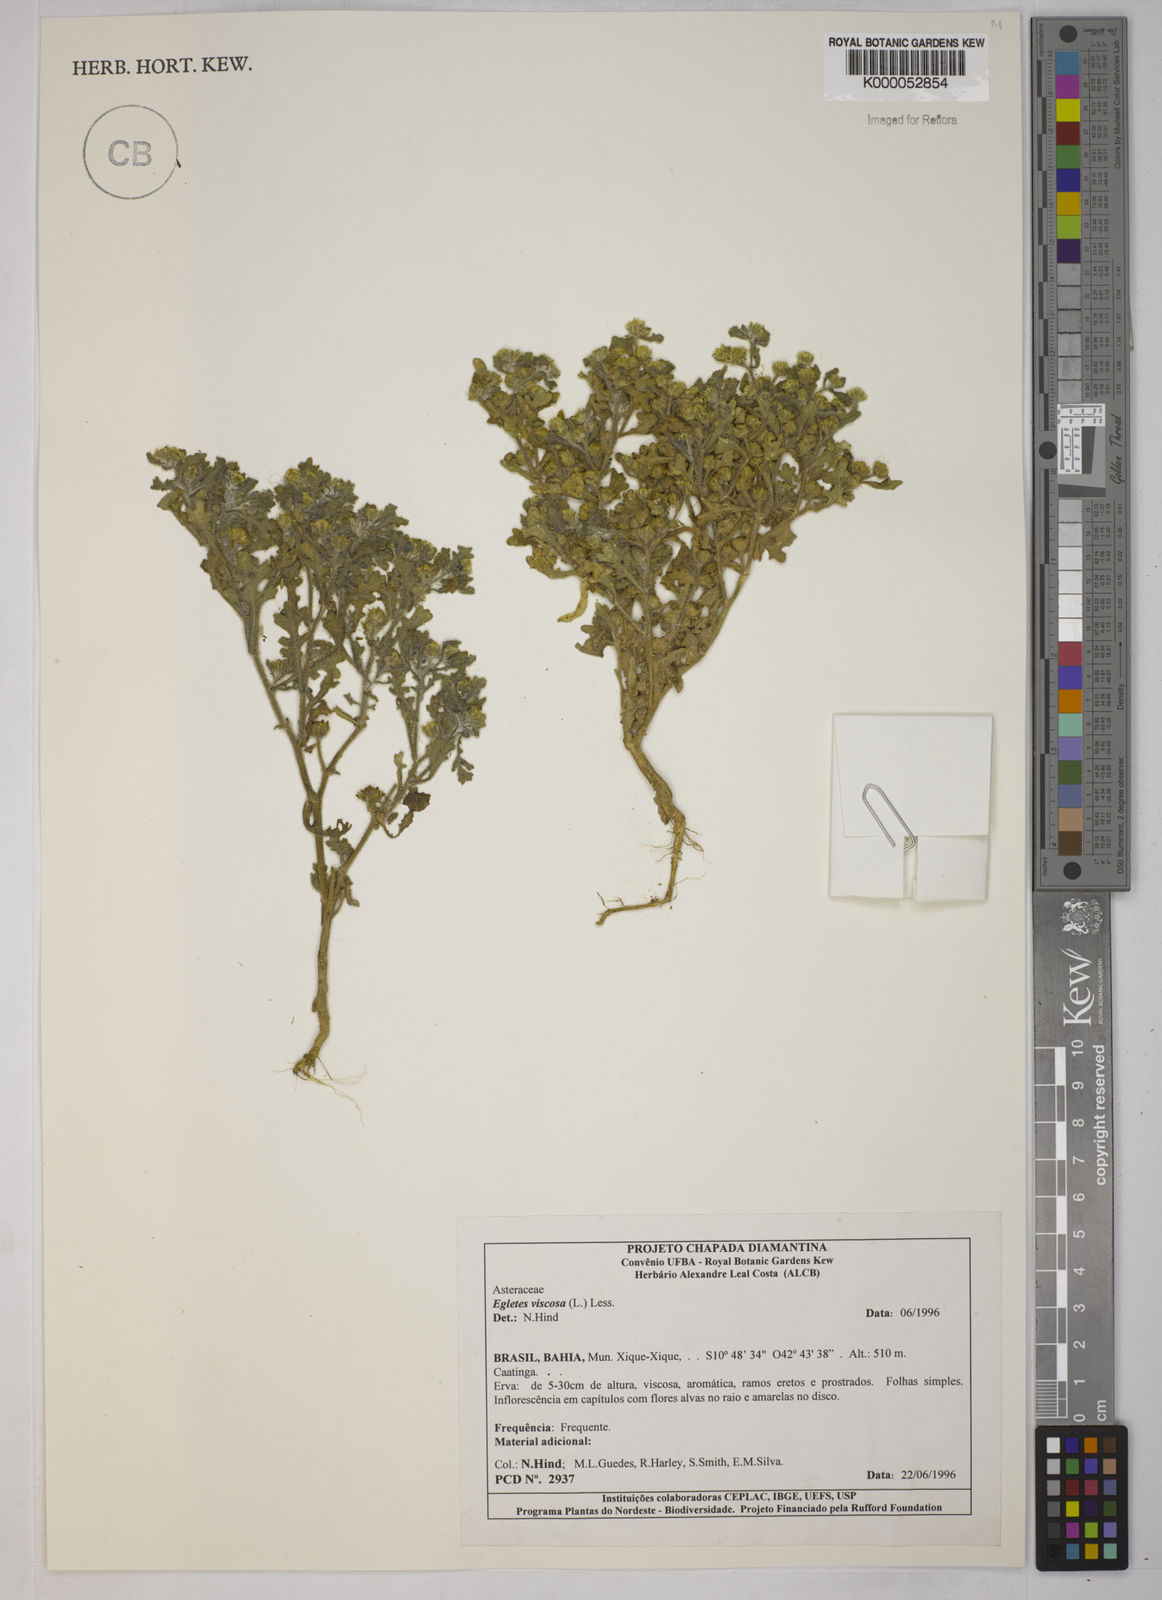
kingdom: Plantae
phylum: Tracheophyta
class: Magnoliopsida
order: Asterales
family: Asteraceae
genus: Egletes
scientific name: Egletes viscosa
